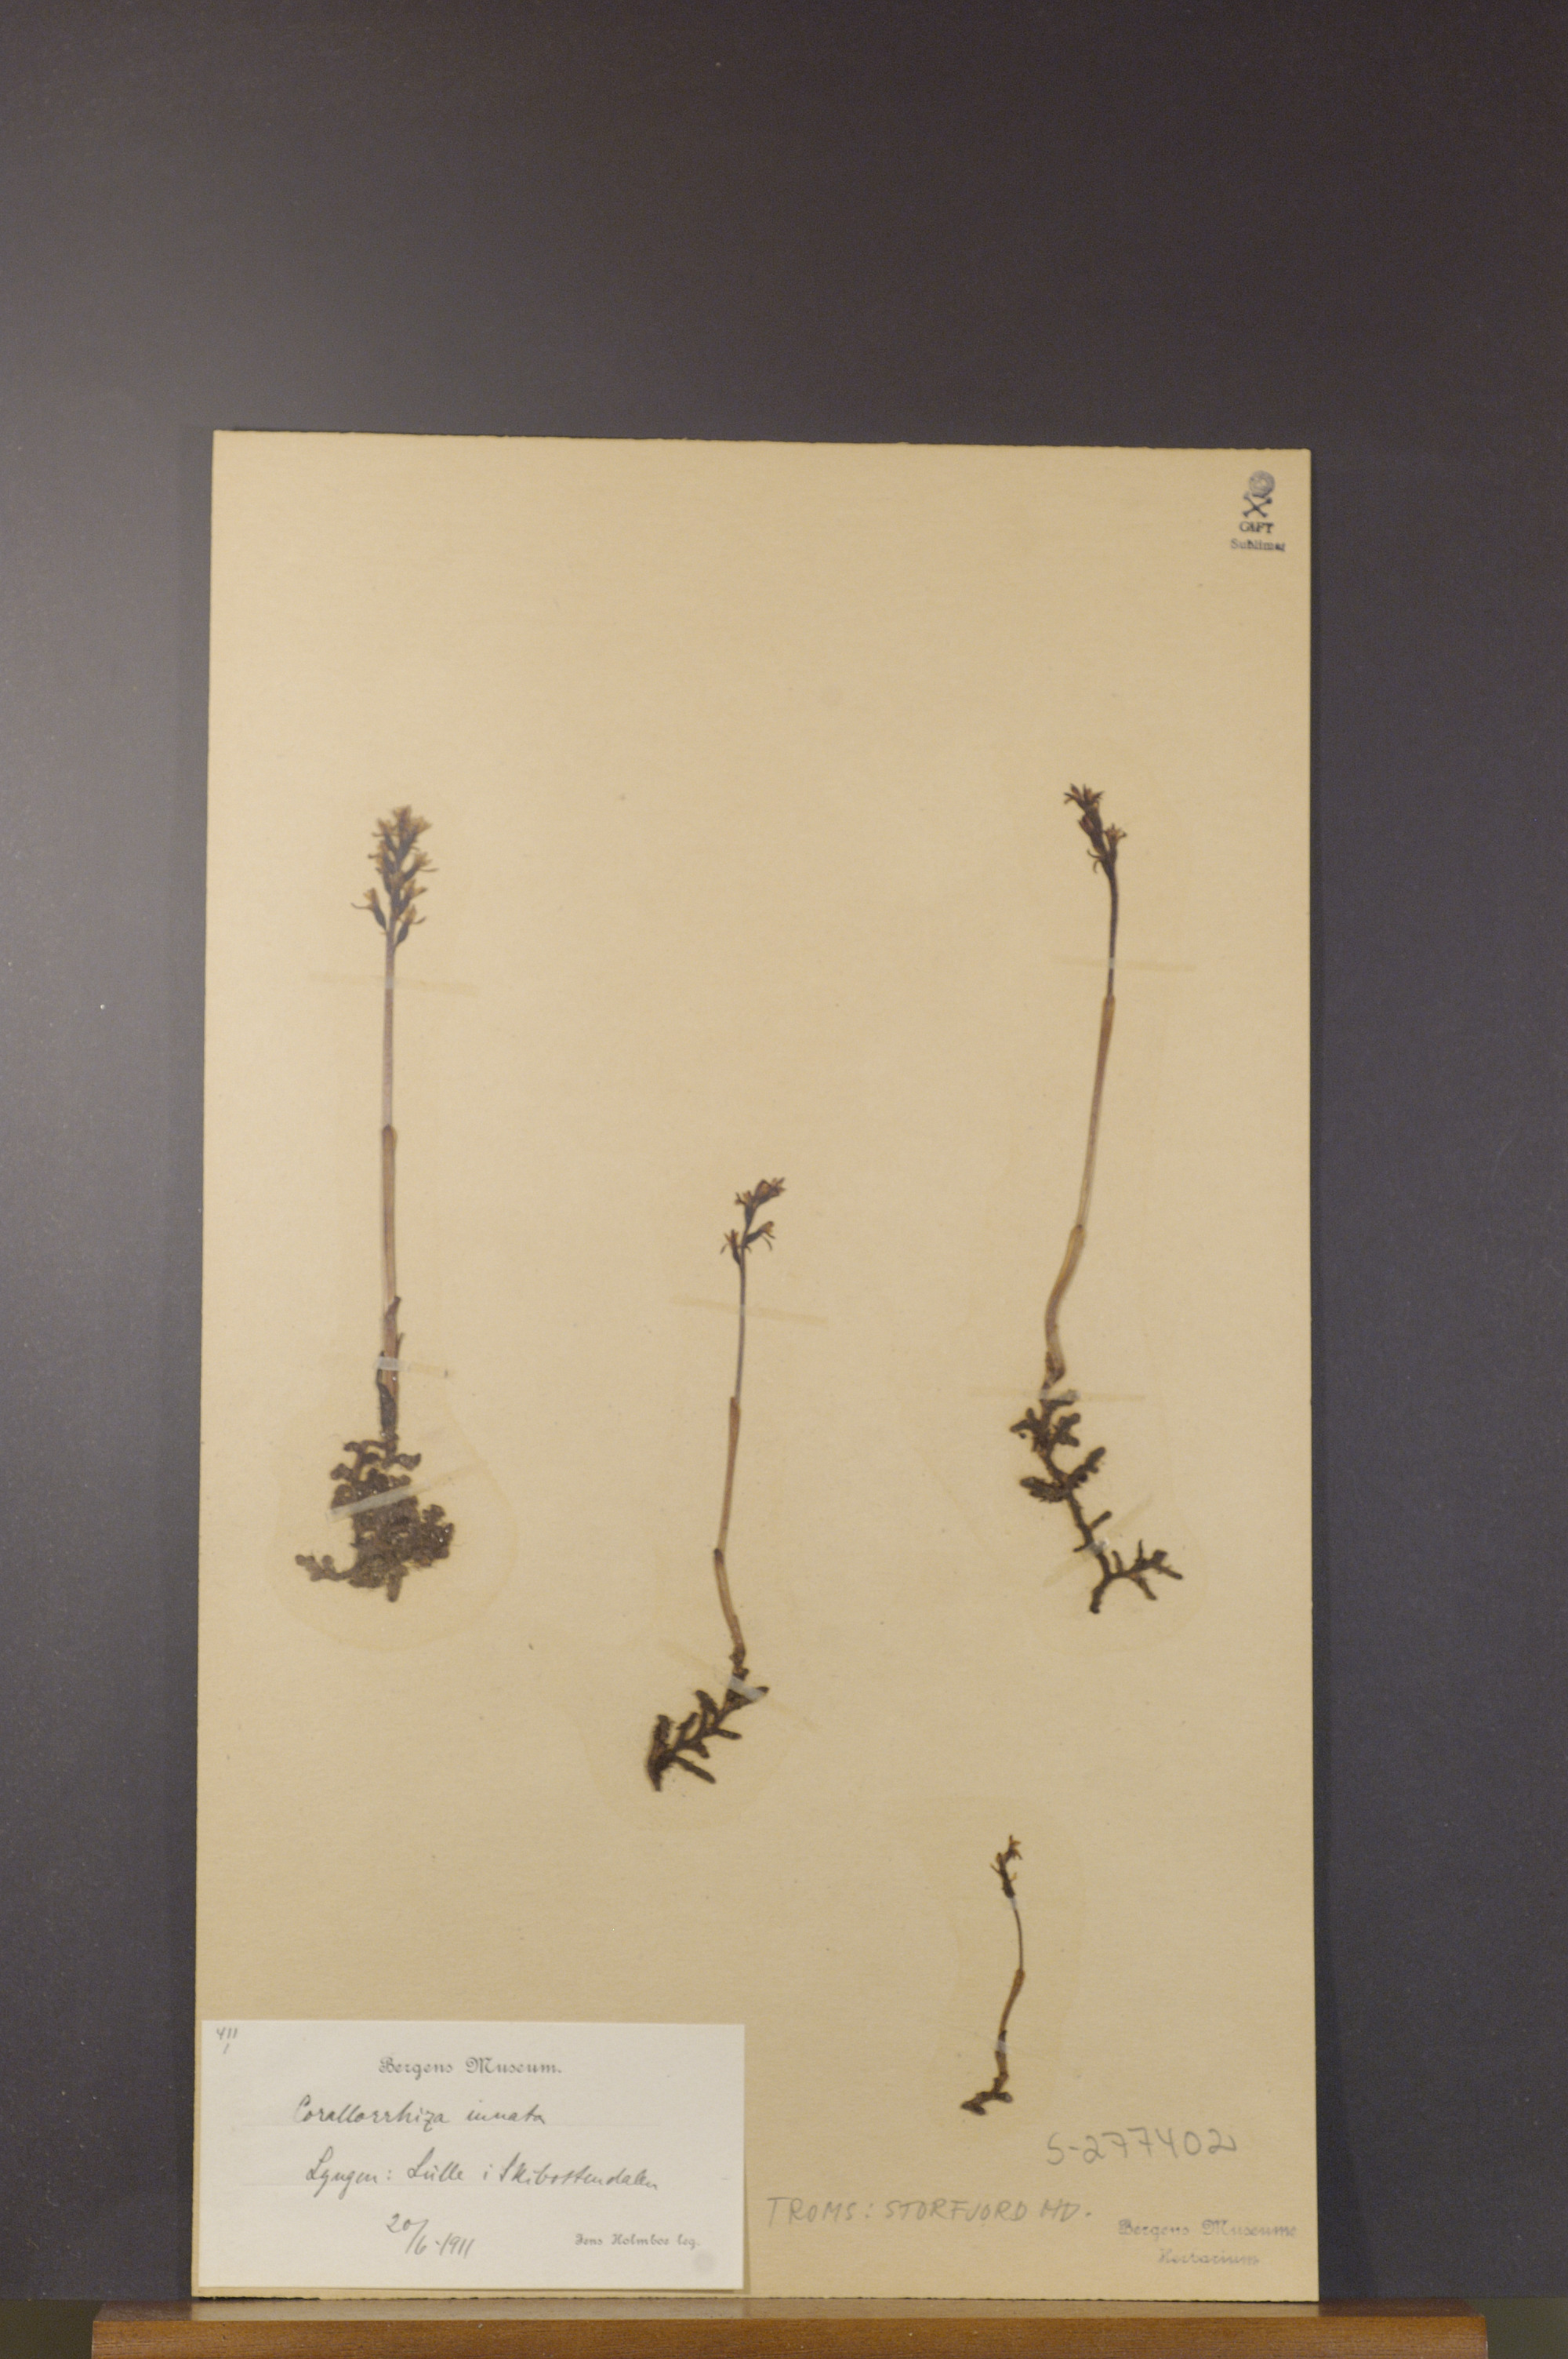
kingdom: Plantae
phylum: Tracheophyta
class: Liliopsida
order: Asparagales
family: Orchidaceae
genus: Corallorhiza
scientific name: Corallorhiza trifida
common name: Yellow coralroot
